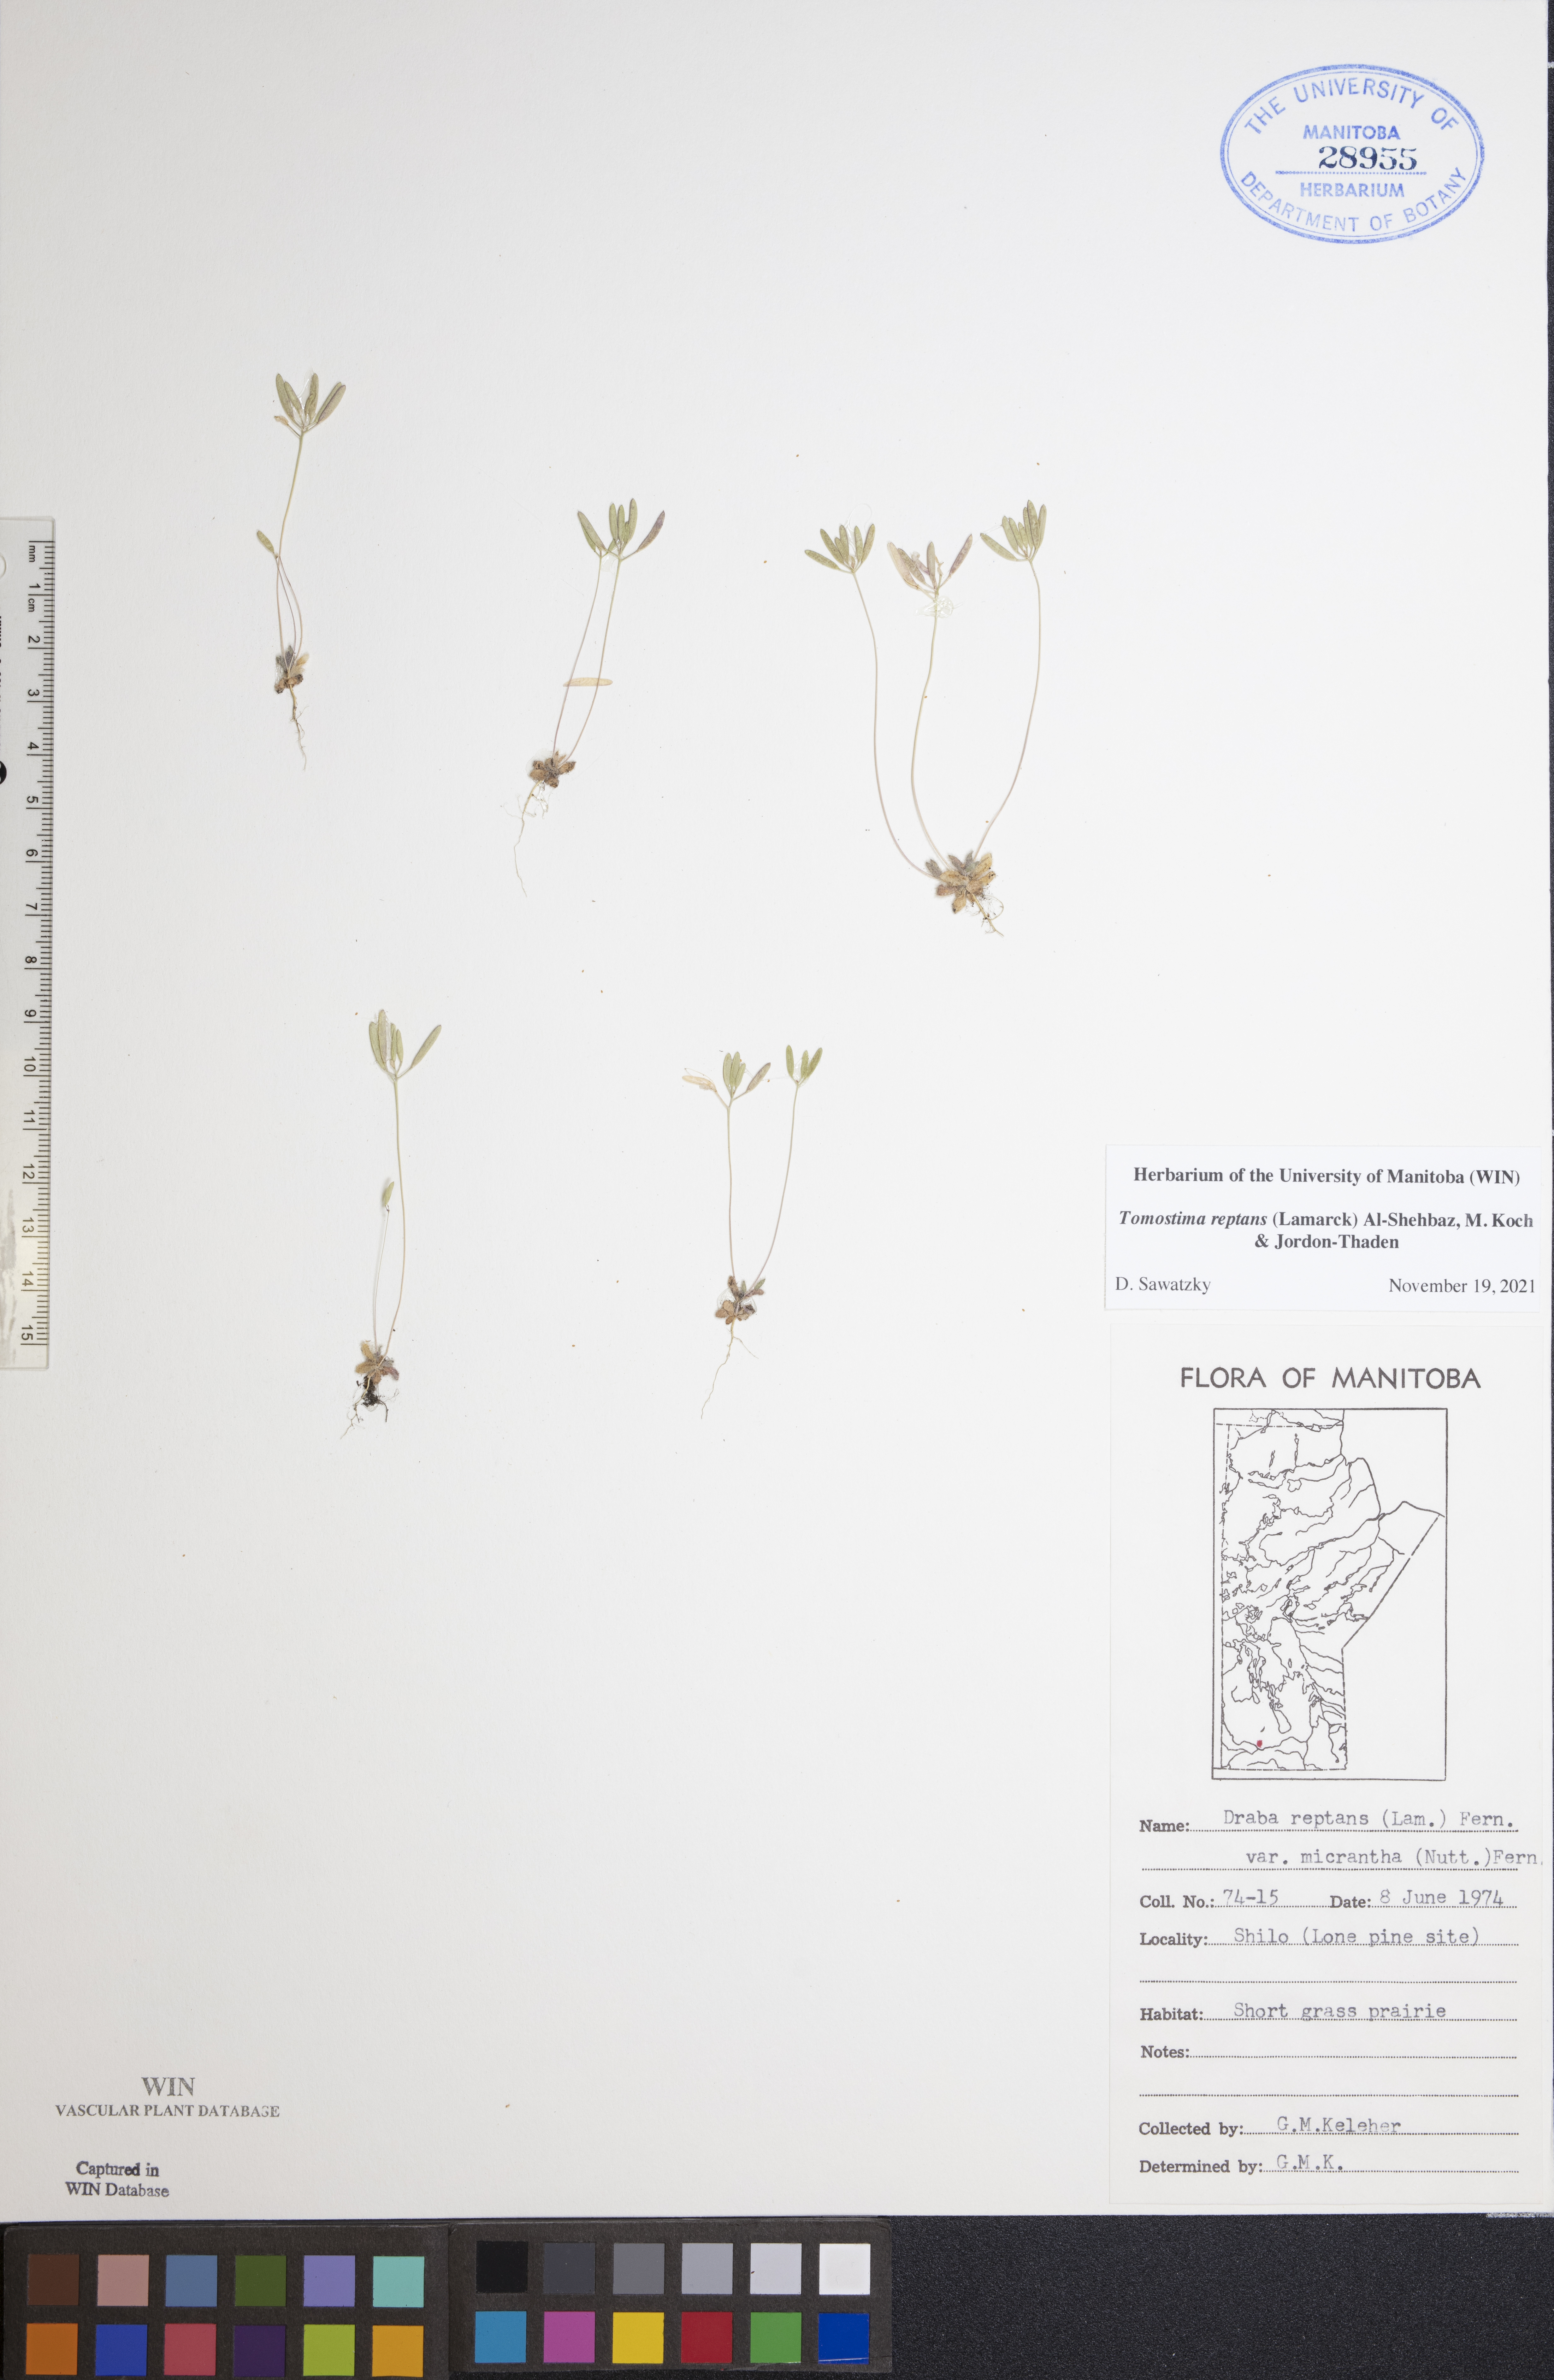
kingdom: Plantae
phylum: Tracheophyta
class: Magnoliopsida
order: Brassicales
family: Brassicaceae
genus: Tomostima
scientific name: Tomostima reptans
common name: Carolina draba
